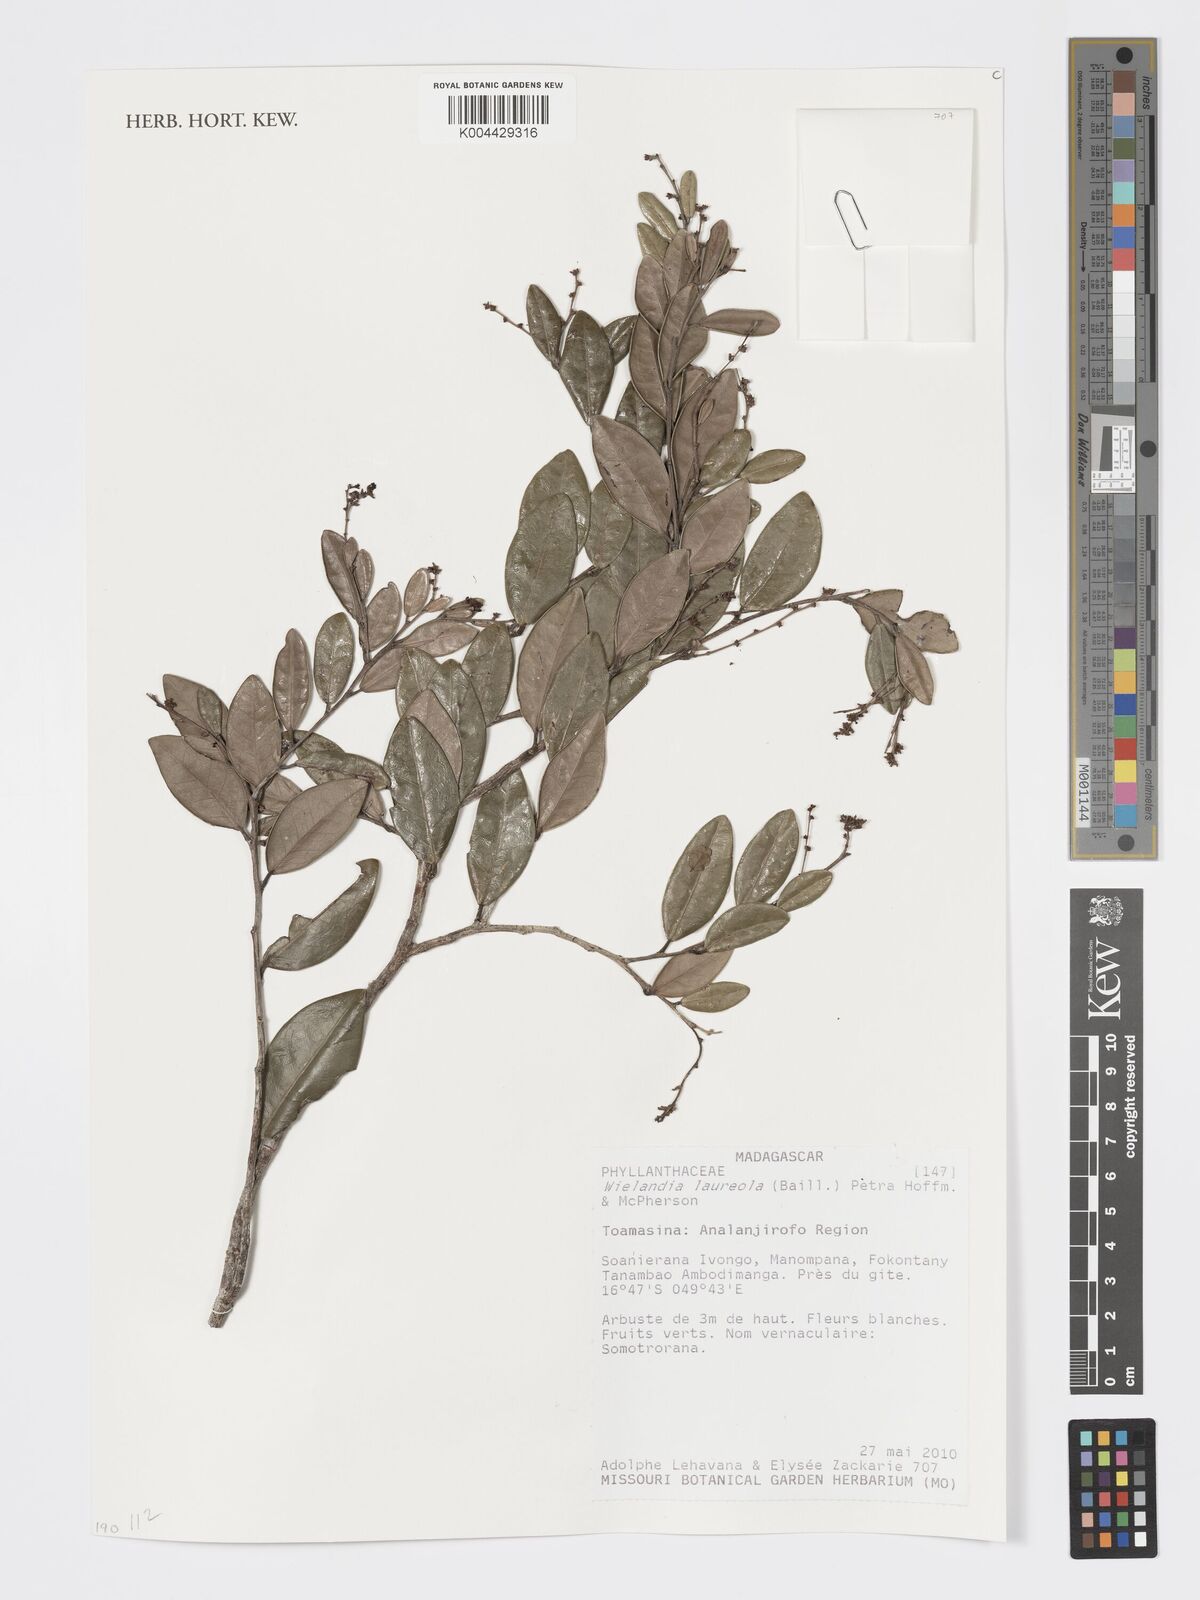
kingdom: Plantae
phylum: Tracheophyta
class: Magnoliopsida
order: Malpighiales
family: Phyllanthaceae
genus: Wielandia
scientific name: Wielandia laureola
